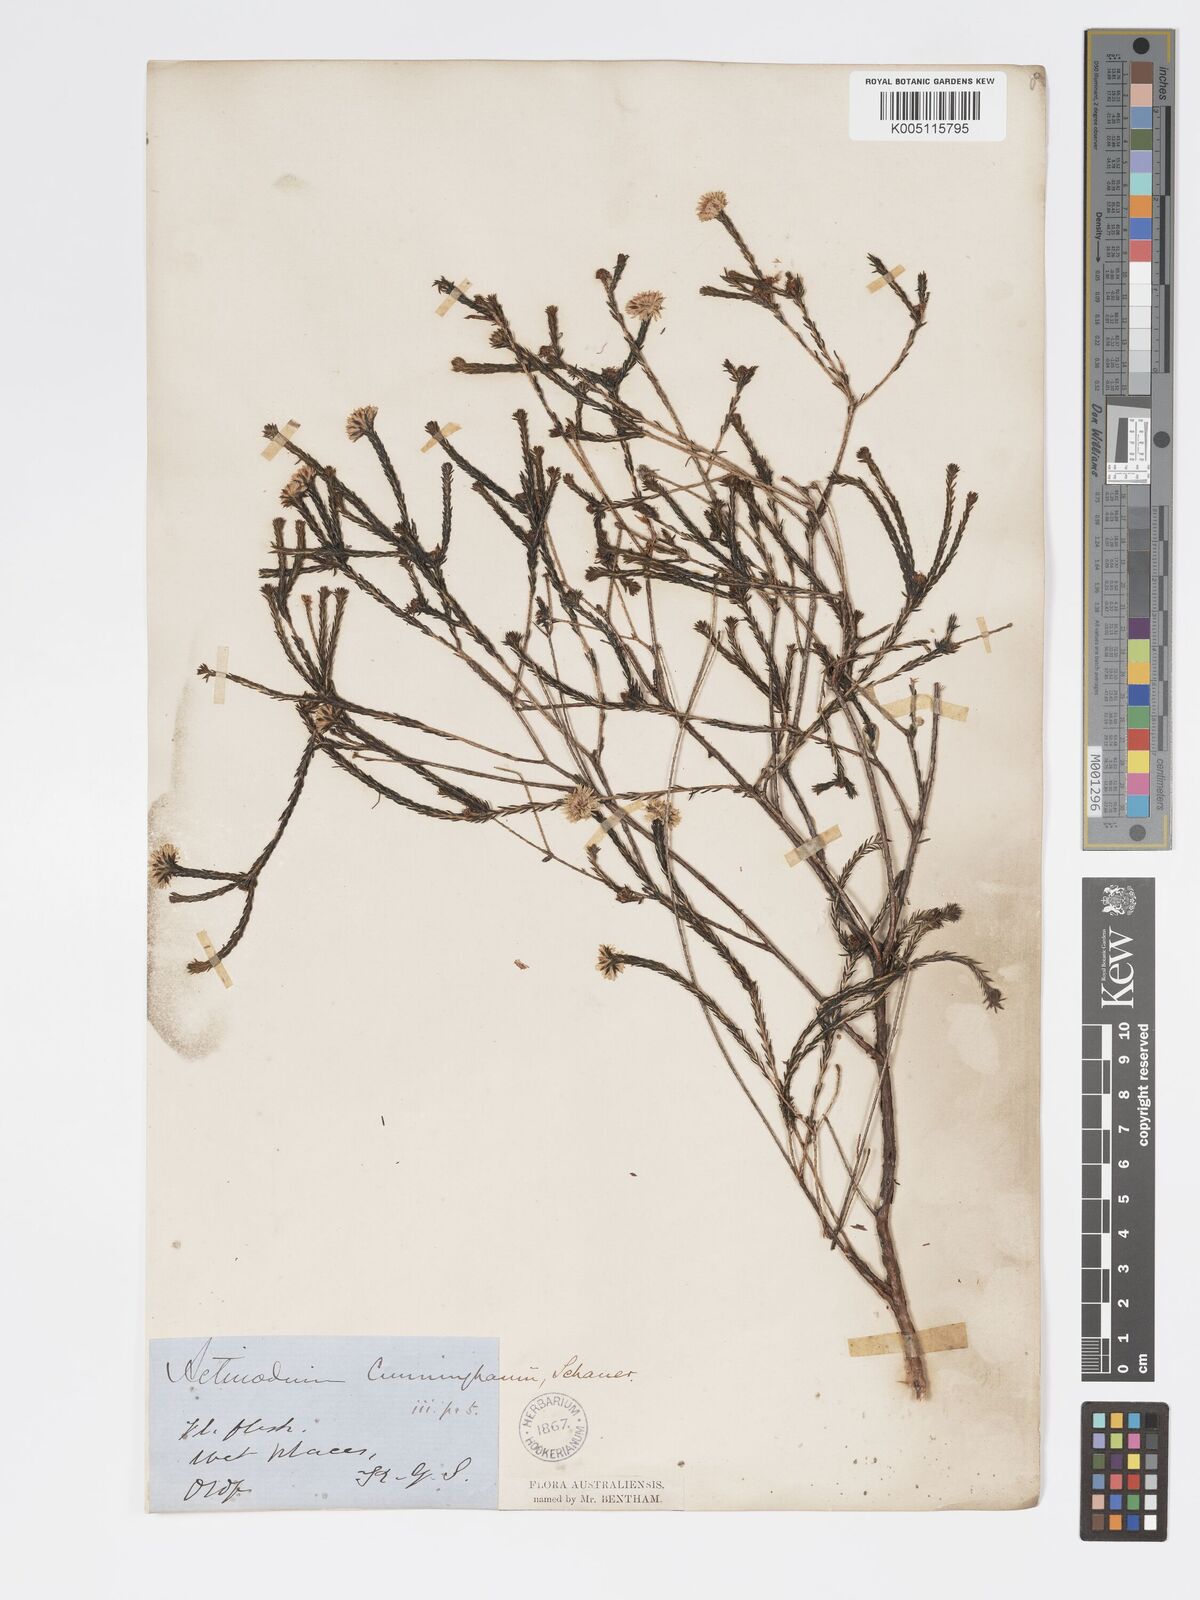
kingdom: Plantae
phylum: Tracheophyta
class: Magnoliopsida
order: Myrtales
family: Myrtaceae
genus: Actinodium
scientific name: Actinodium cunninghamii
